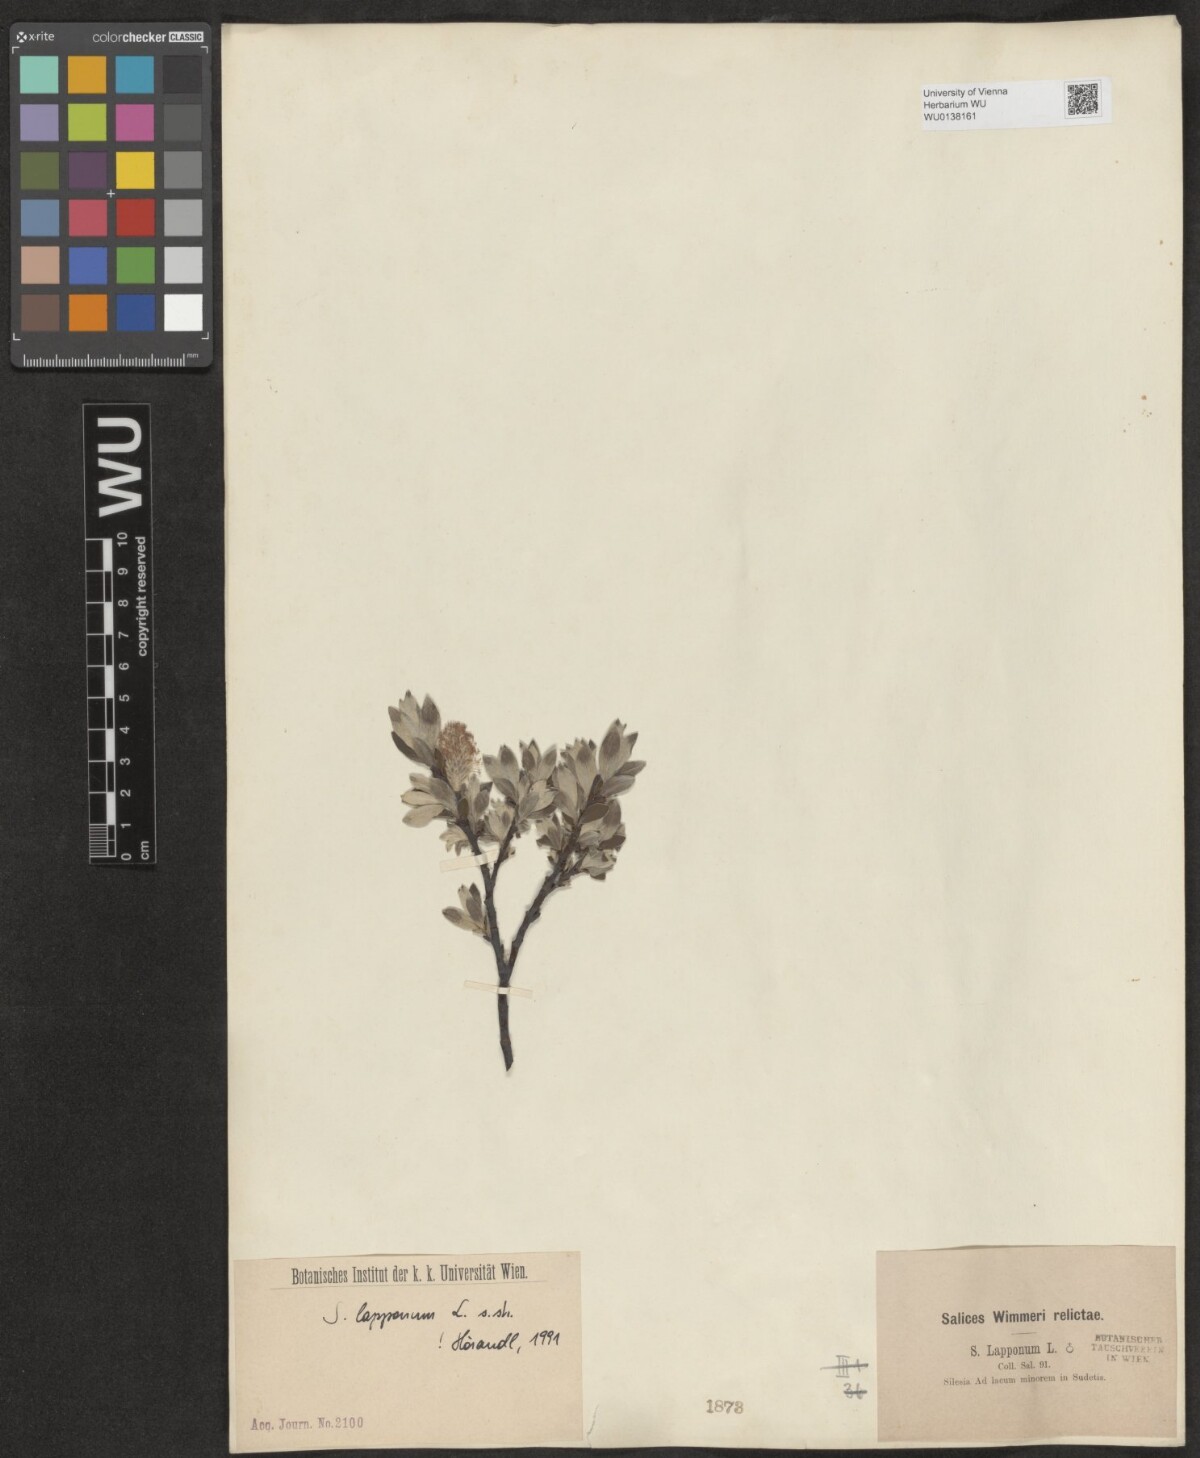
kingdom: Plantae
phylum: Tracheophyta
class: Magnoliopsida
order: Malpighiales
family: Salicaceae
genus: Salix
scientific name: Salix lapponum
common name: Downy willow
